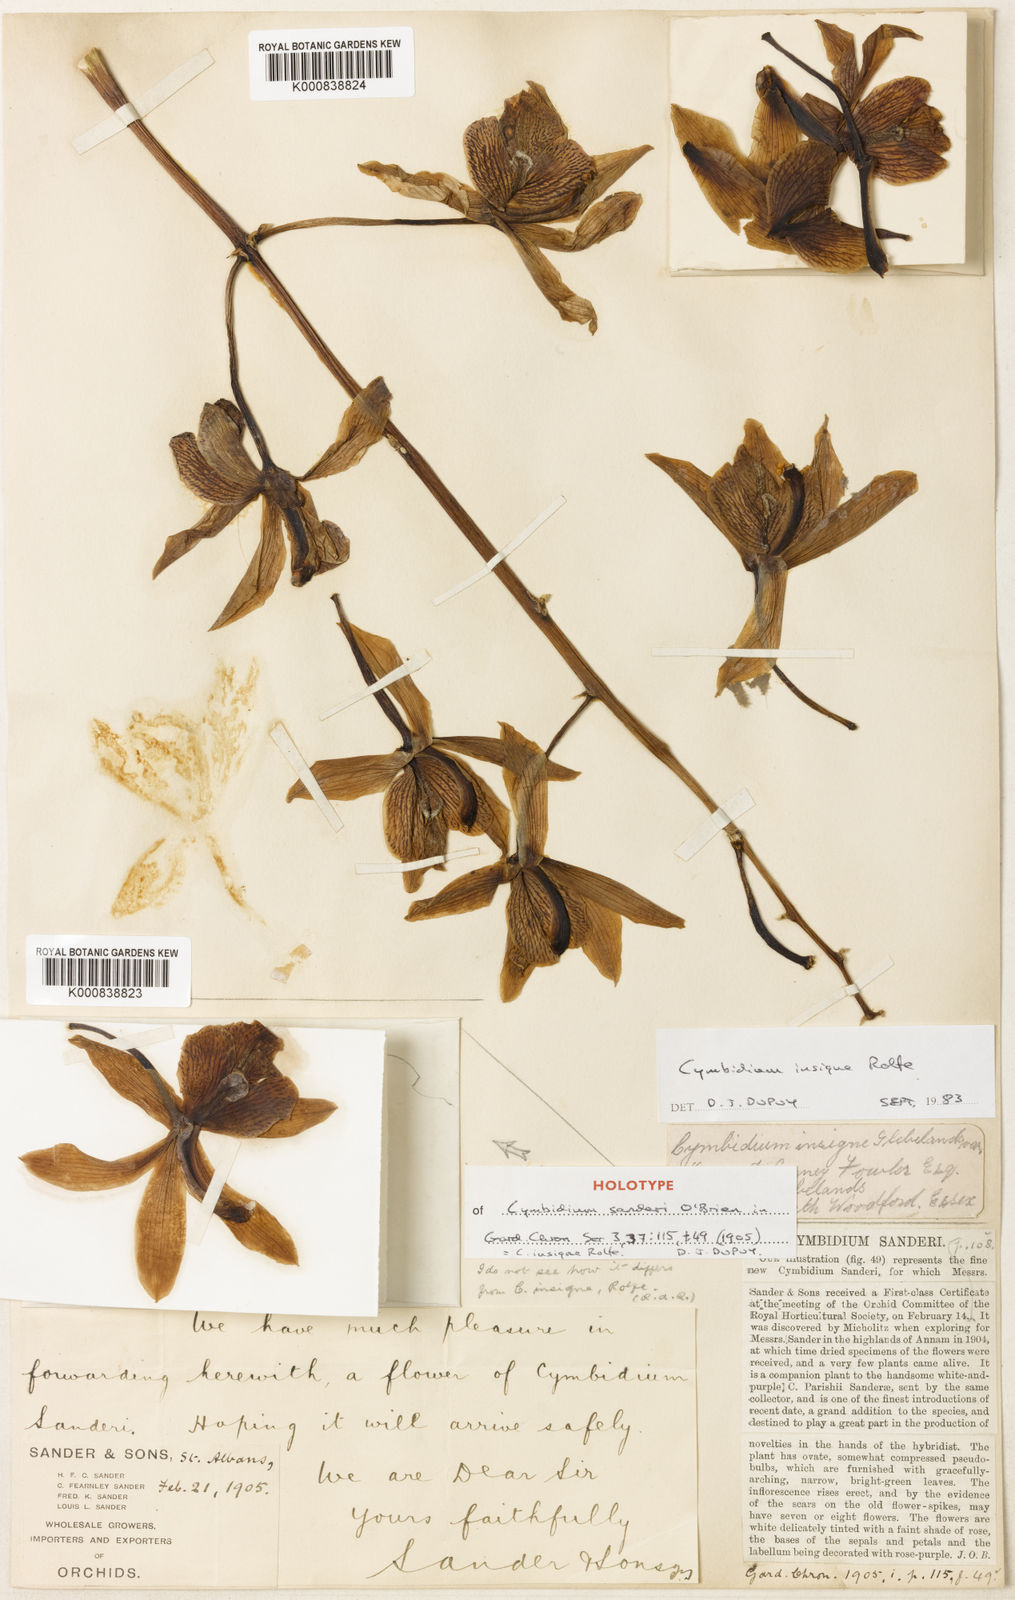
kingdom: Plantae
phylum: Tracheophyta
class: Liliopsida
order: Asparagales
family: Orchidaceae
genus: Cymbidium
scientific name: Cymbidium insigne
